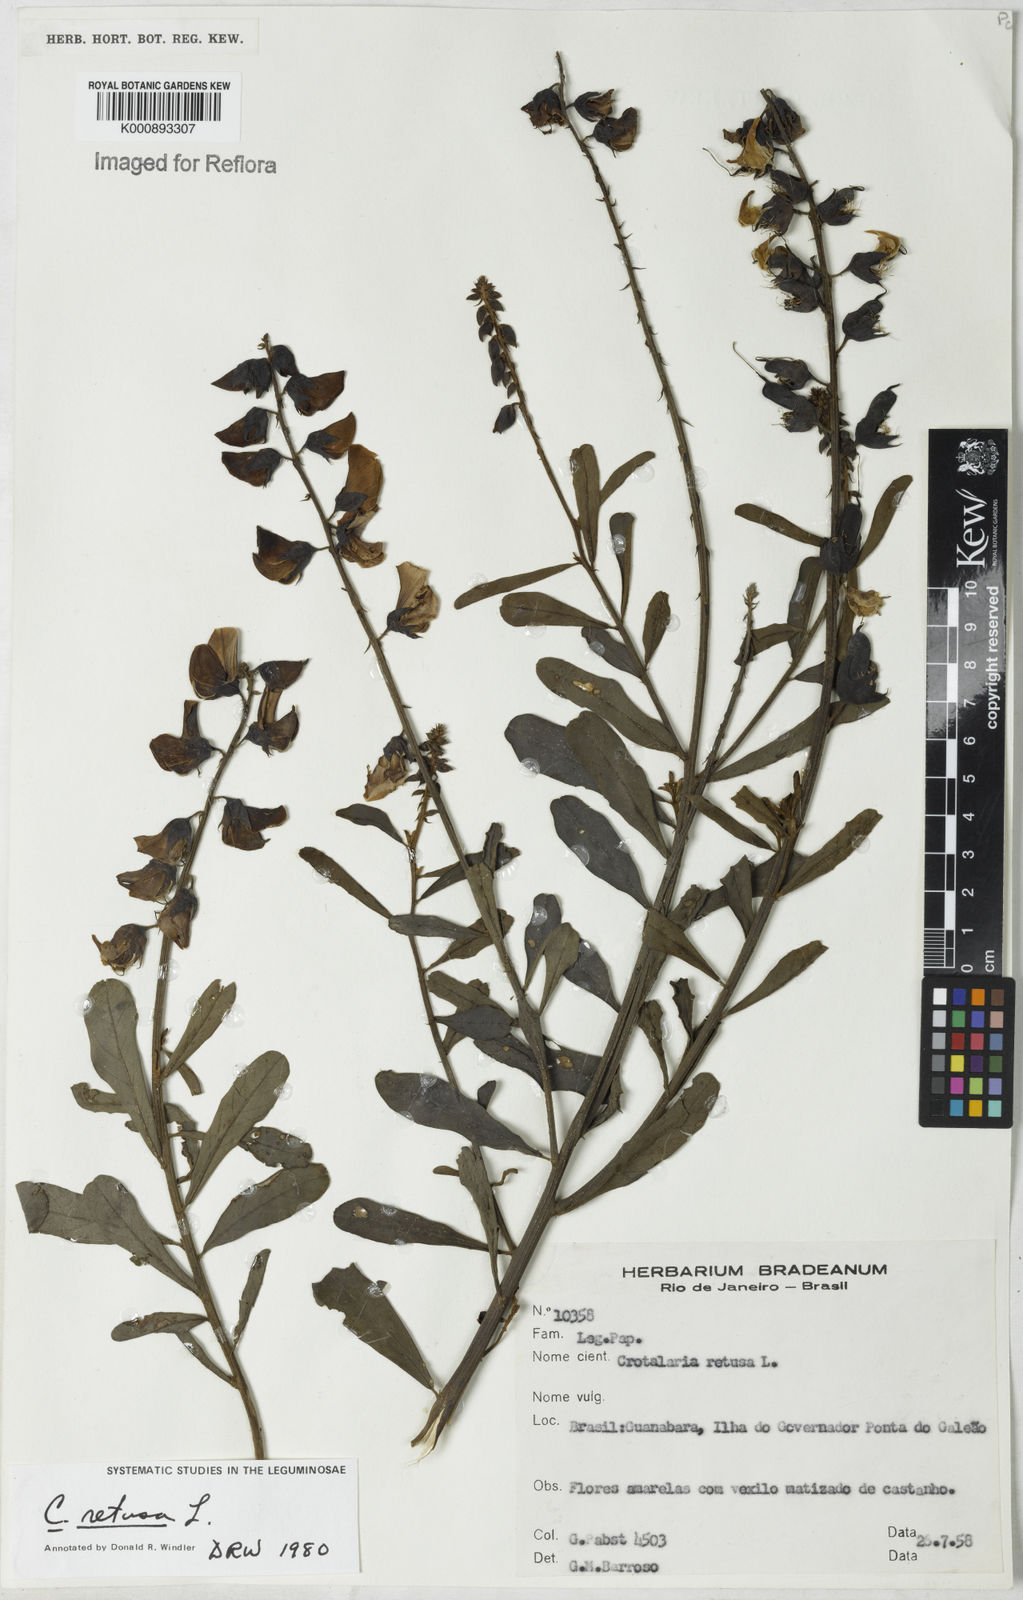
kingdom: Plantae
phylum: Tracheophyta
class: Magnoliopsida
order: Fabales
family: Fabaceae
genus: Crotalaria
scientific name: Crotalaria retusa
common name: Rattleweed
